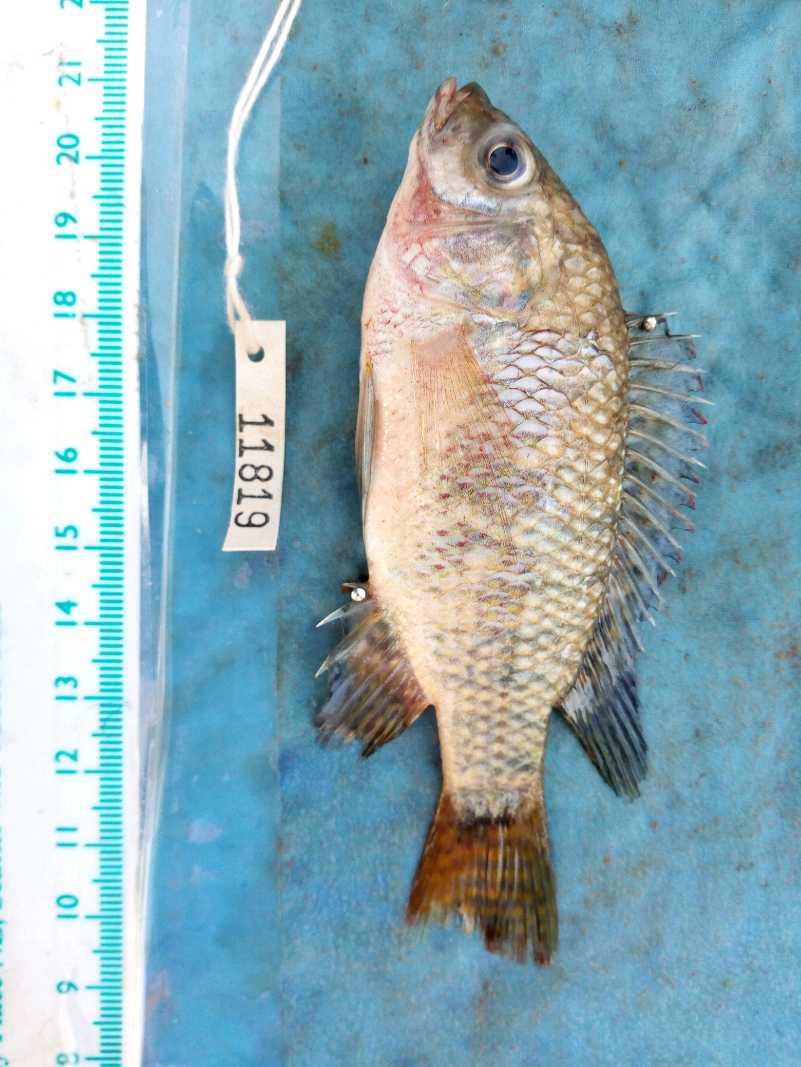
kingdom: Animalia
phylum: Chordata
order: Perciformes
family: Cichlidae
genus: Oreochromis
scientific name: Oreochromis spilurus
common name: Sabaki tilapia
